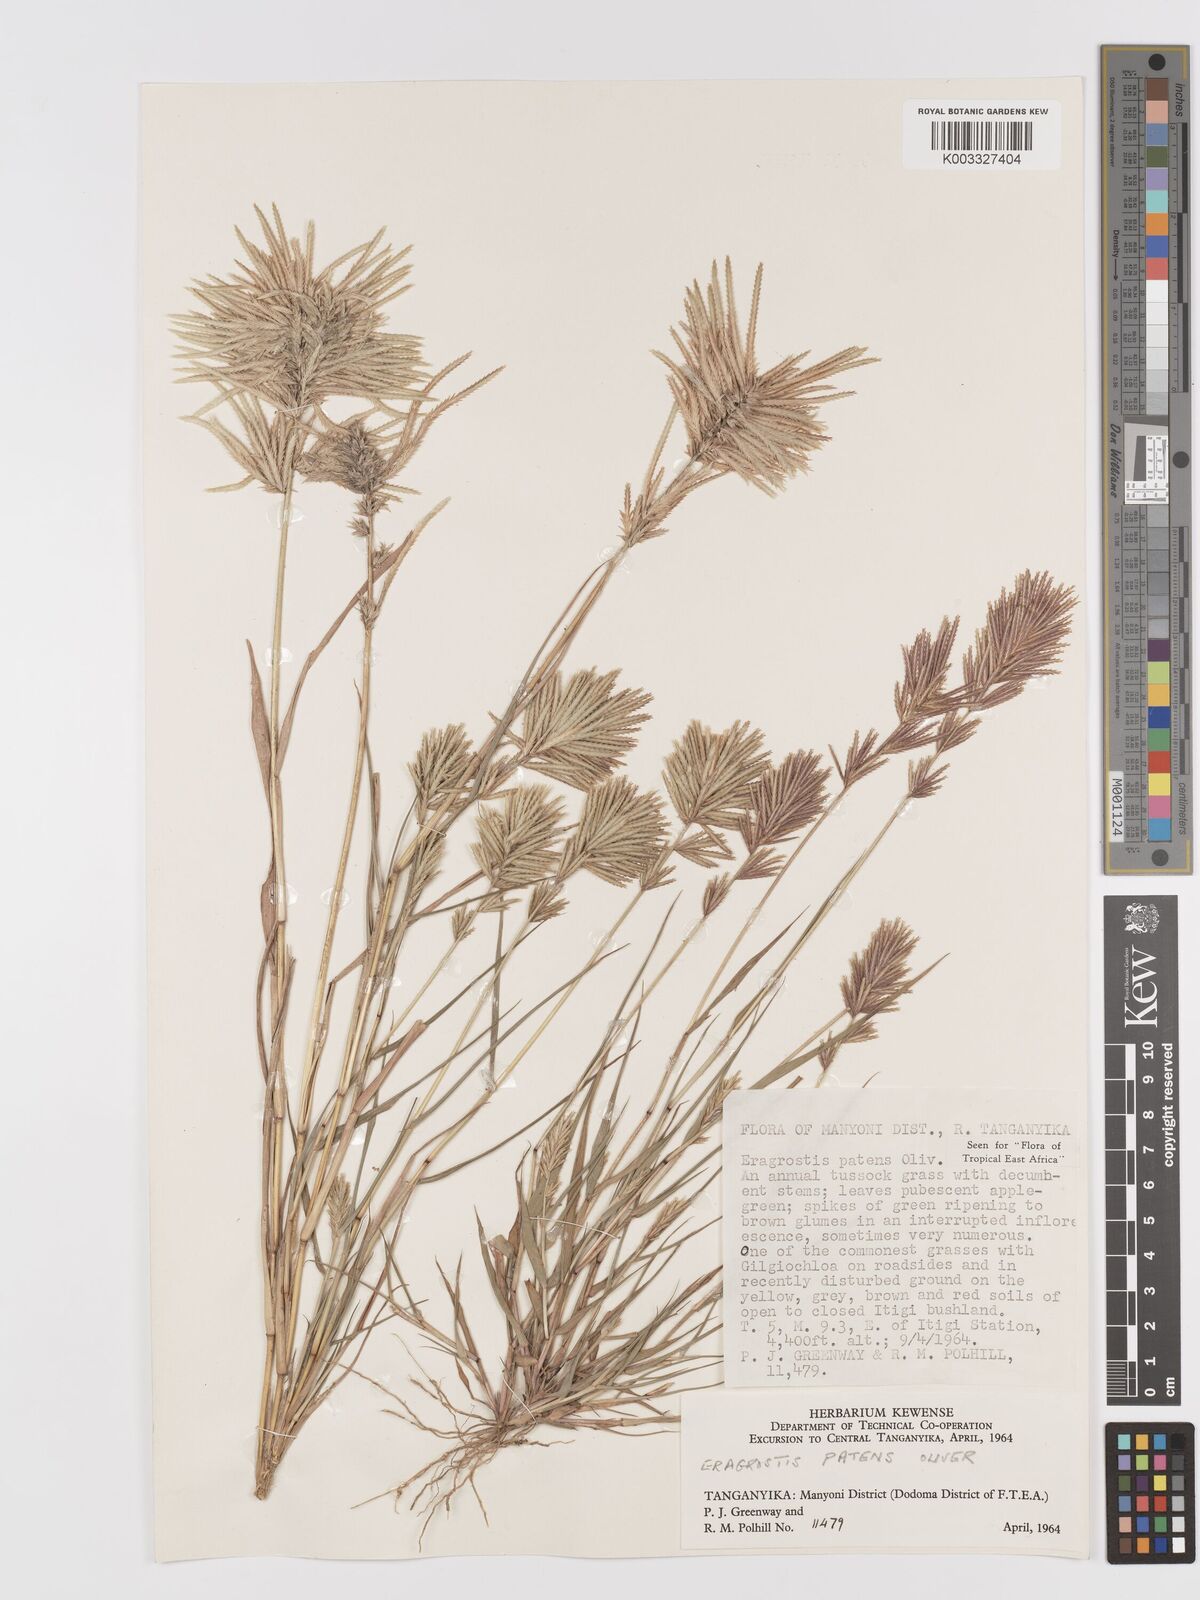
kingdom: Plantae
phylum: Tracheophyta
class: Liliopsida
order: Poales
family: Poaceae
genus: Eragrostis
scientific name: Eragrostis patens
